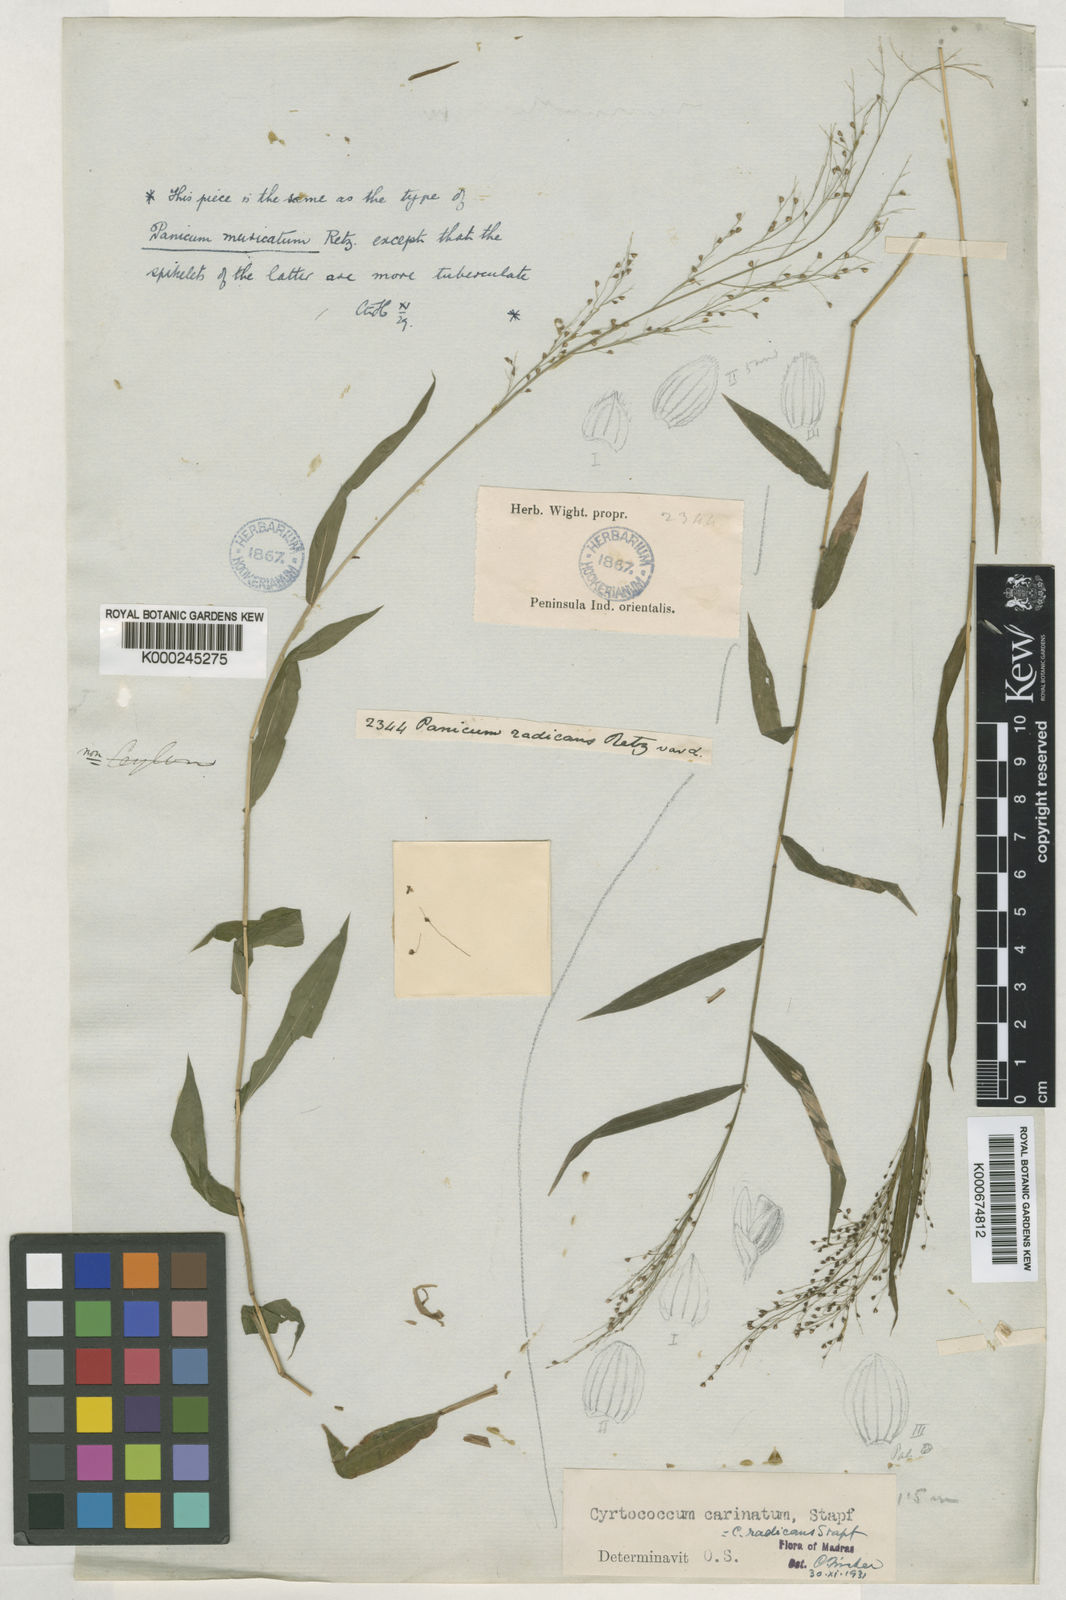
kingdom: Plantae
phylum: Tracheophyta
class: Liliopsida
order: Poales
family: Poaceae
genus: Cyrtococcum
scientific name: Cyrtococcum patens
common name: Broad-leaved bowgrass
